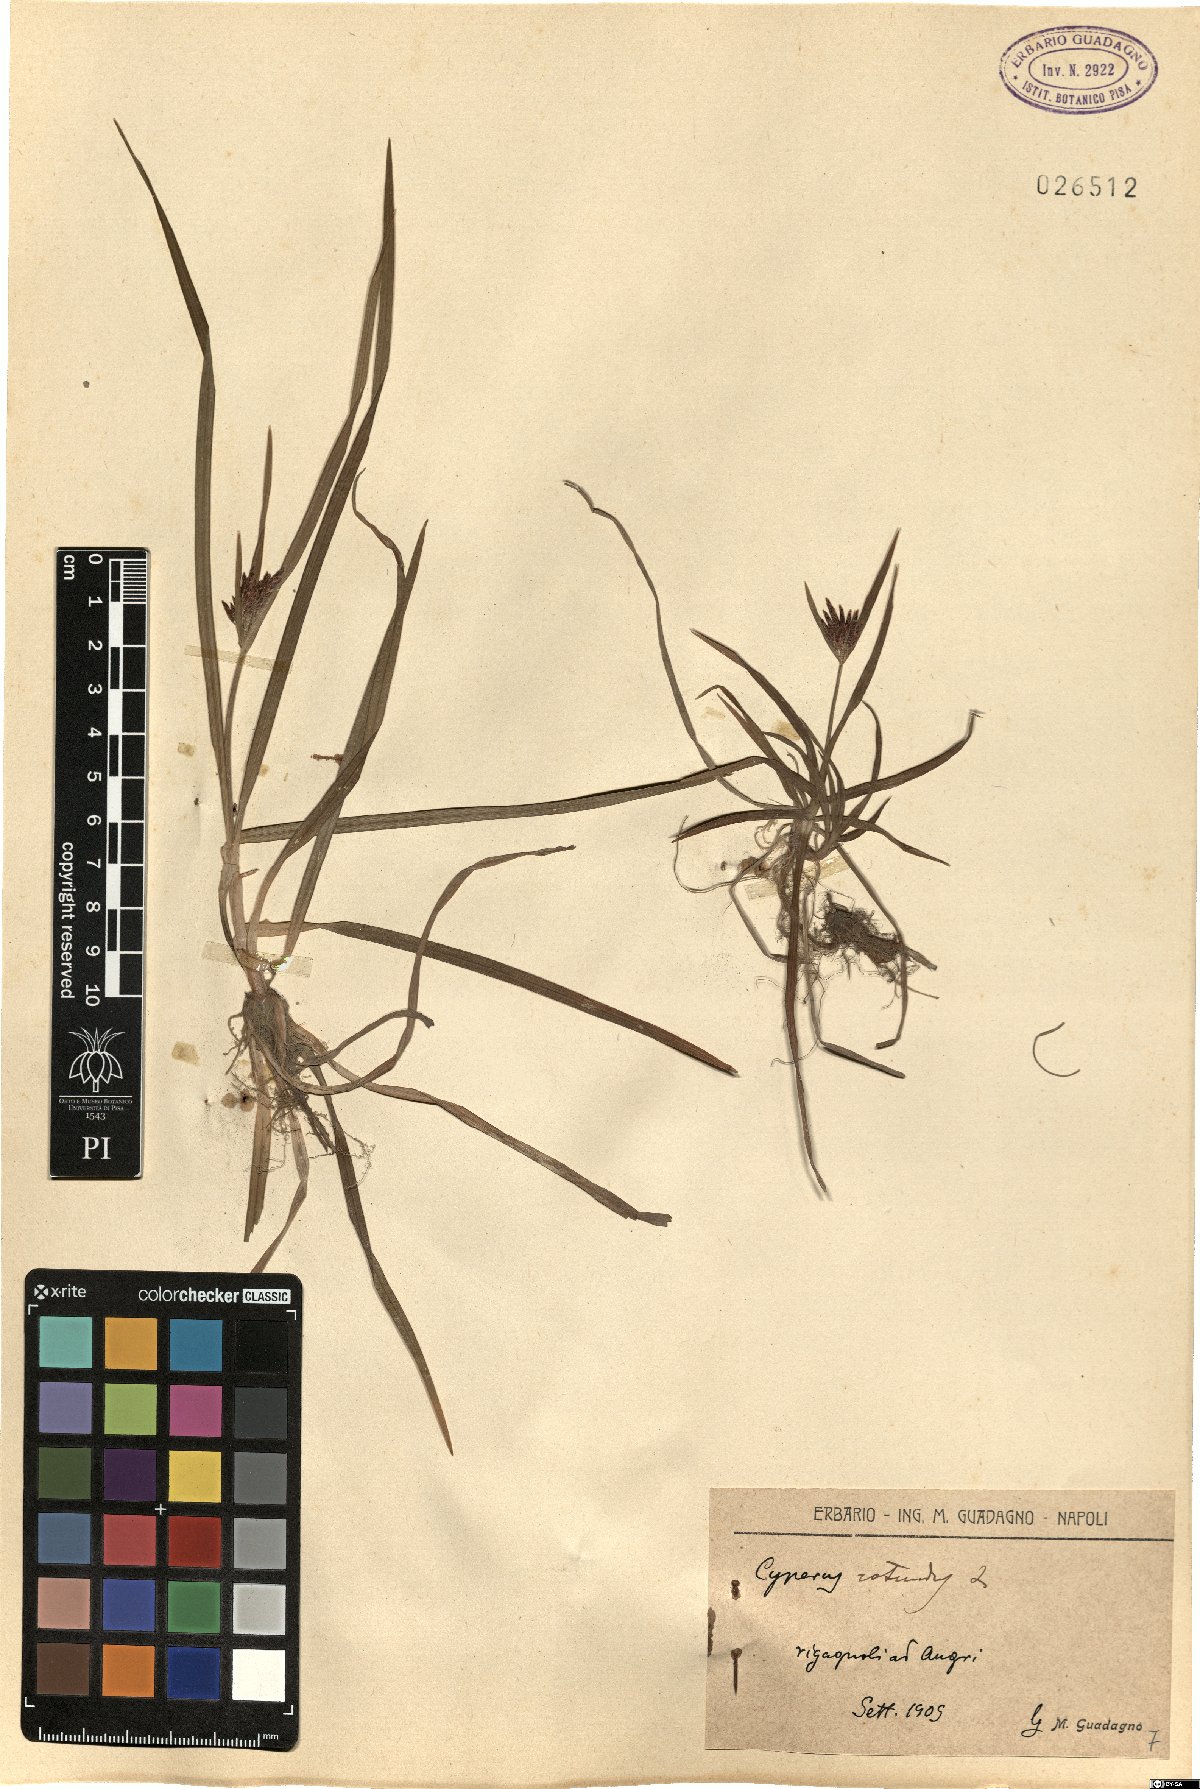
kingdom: Plantae
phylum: Tracheophyta
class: Liliopsida
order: Poales
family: Cyperaceae
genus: Cyperus
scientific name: Cyperus rotundus
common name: Nutgrass
